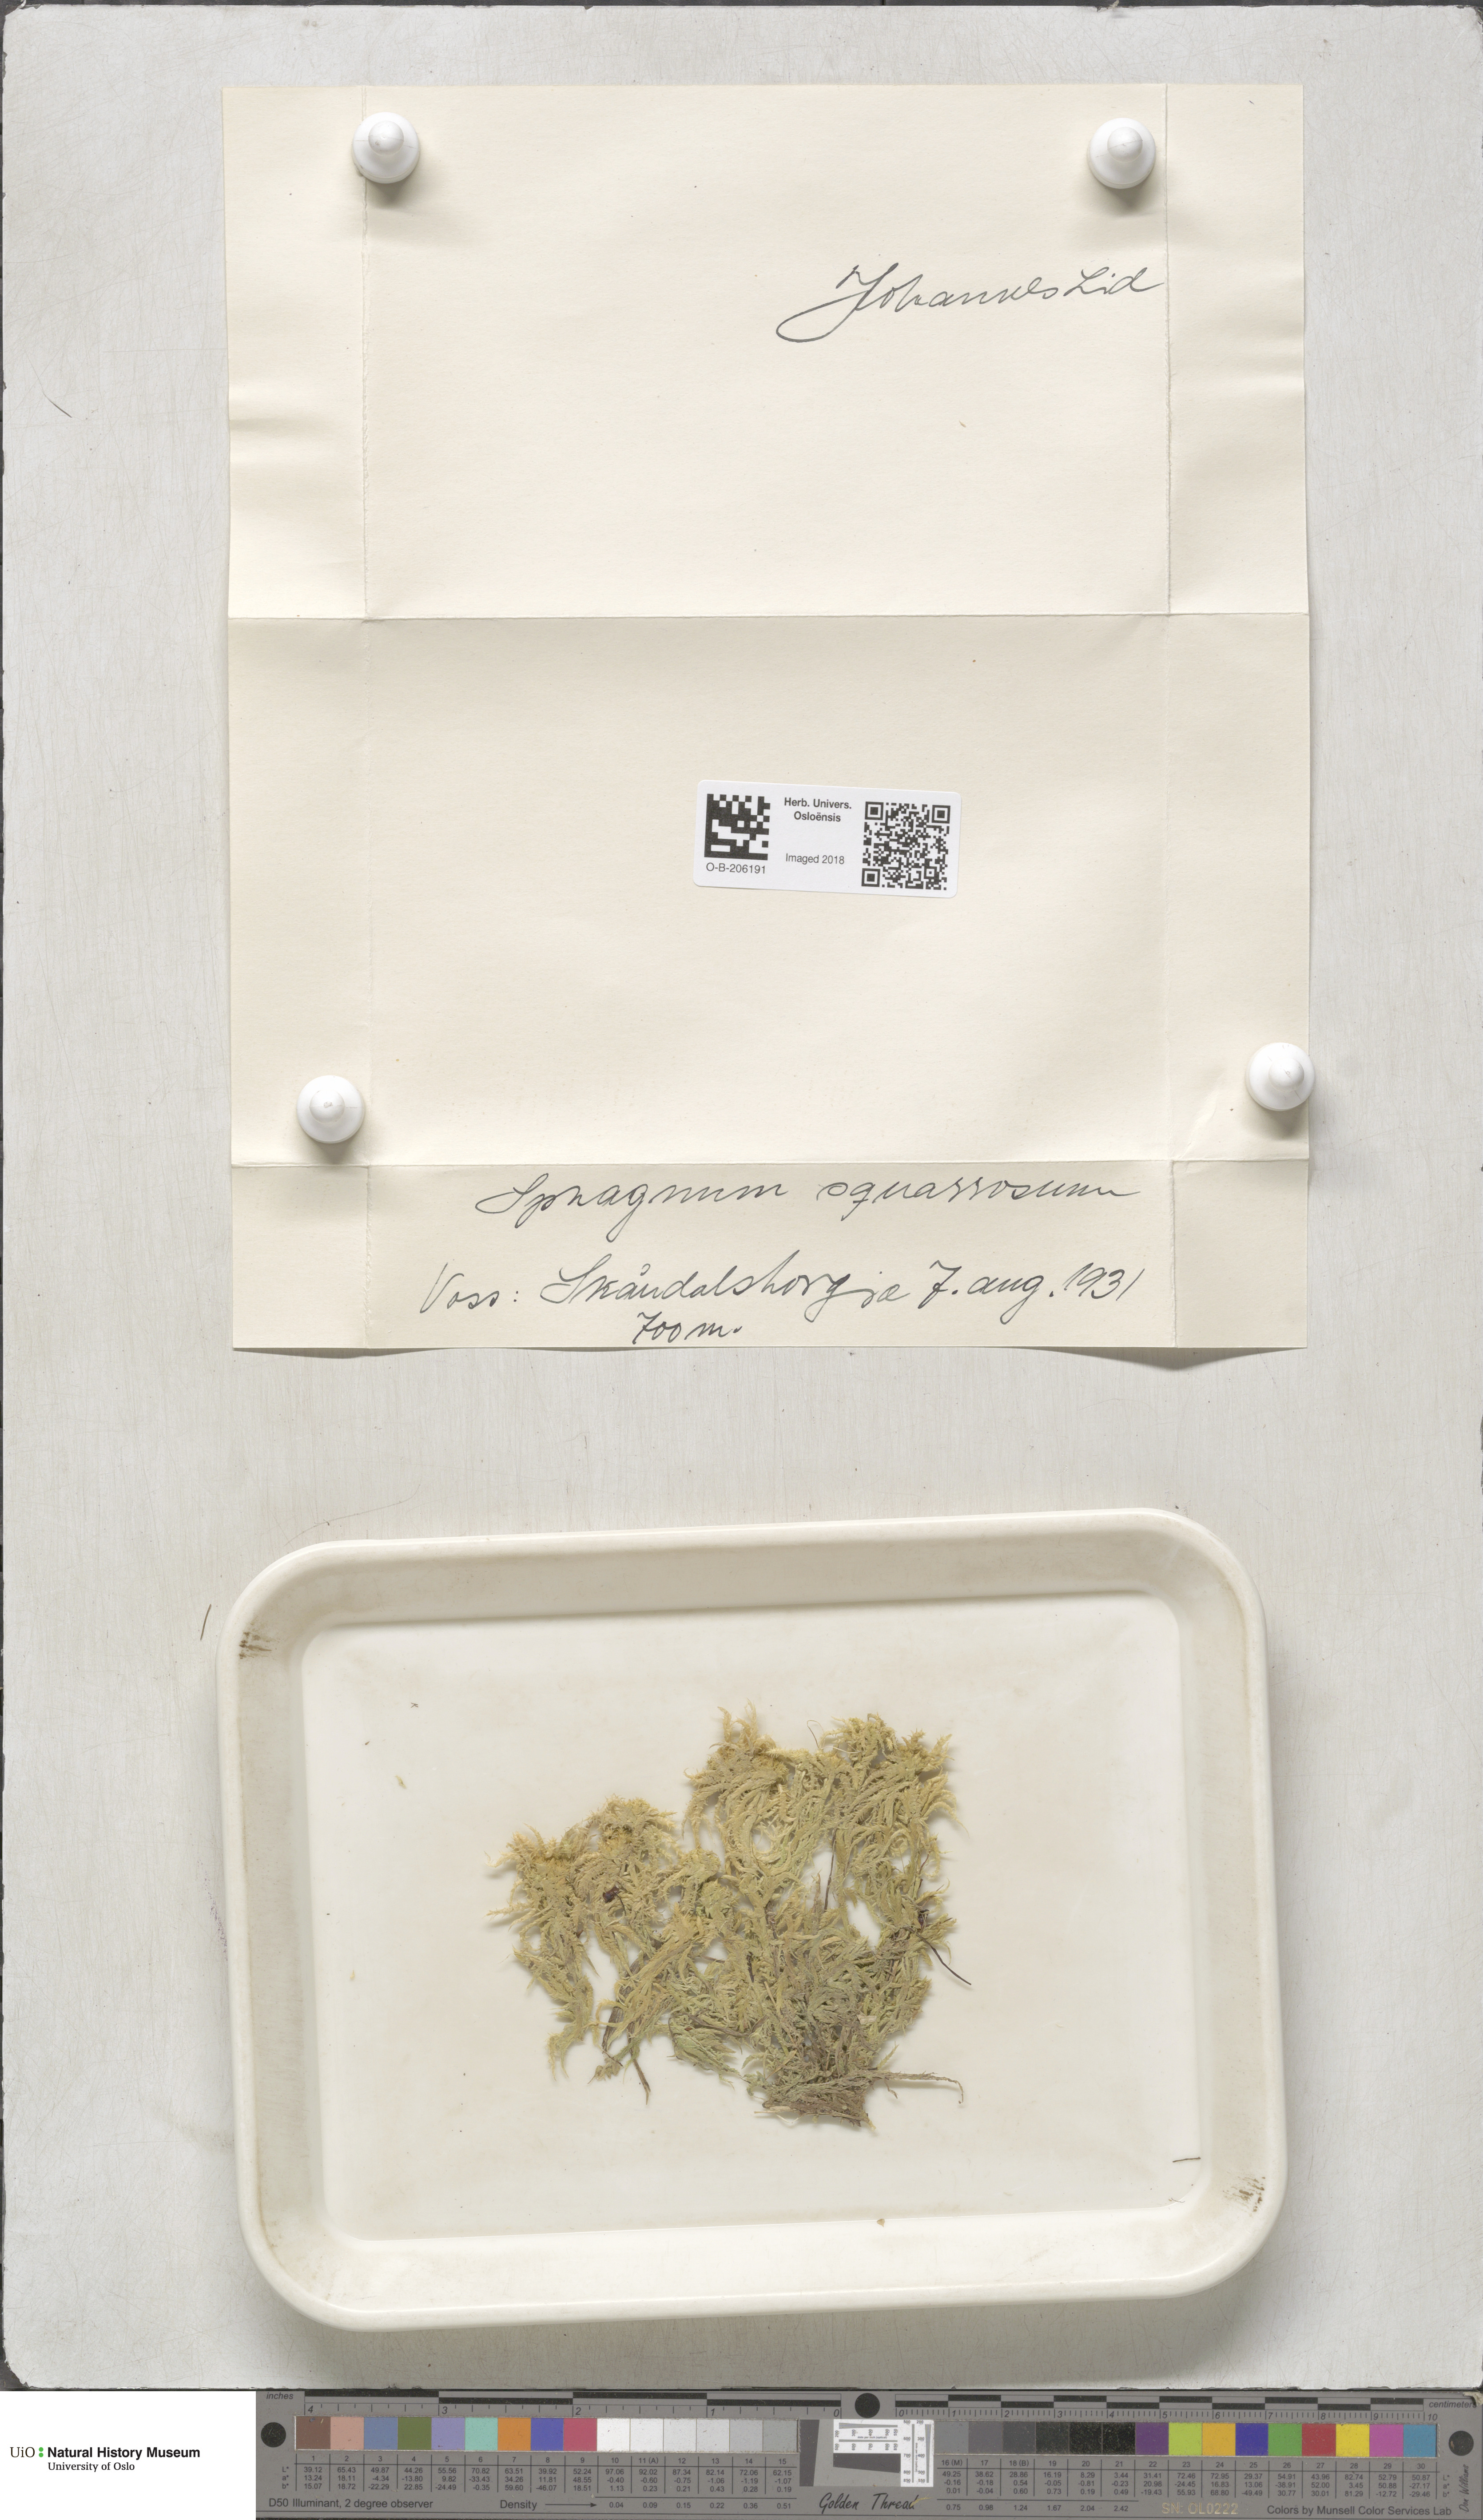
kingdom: Plantae
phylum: Bryophyta
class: Sphagnopsida
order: Sphagnales
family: Sphagnaceae
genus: Sphagnum
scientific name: Sphagnum squarrosum
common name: Shaggy peat moss
